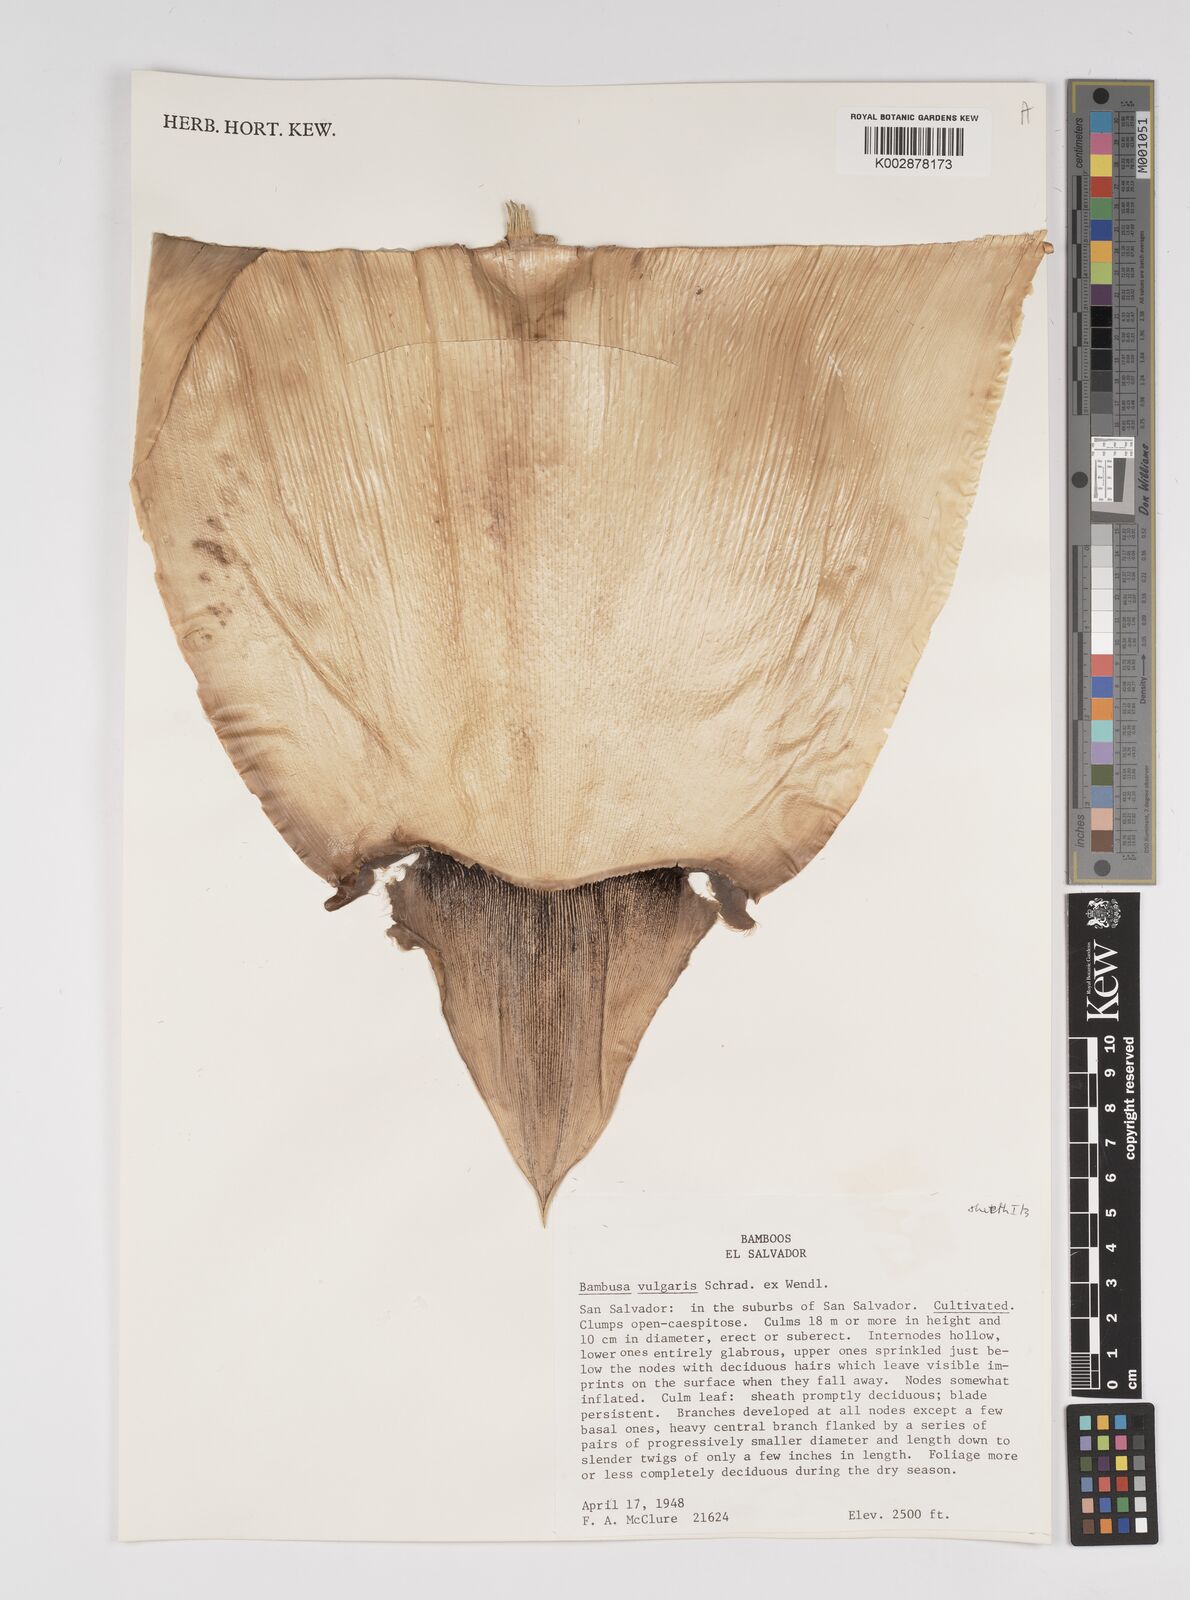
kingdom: Plantae
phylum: Tracheophyta
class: Liliopsida
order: Poales
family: Poaceae
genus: Bambusa
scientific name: Bambusa
